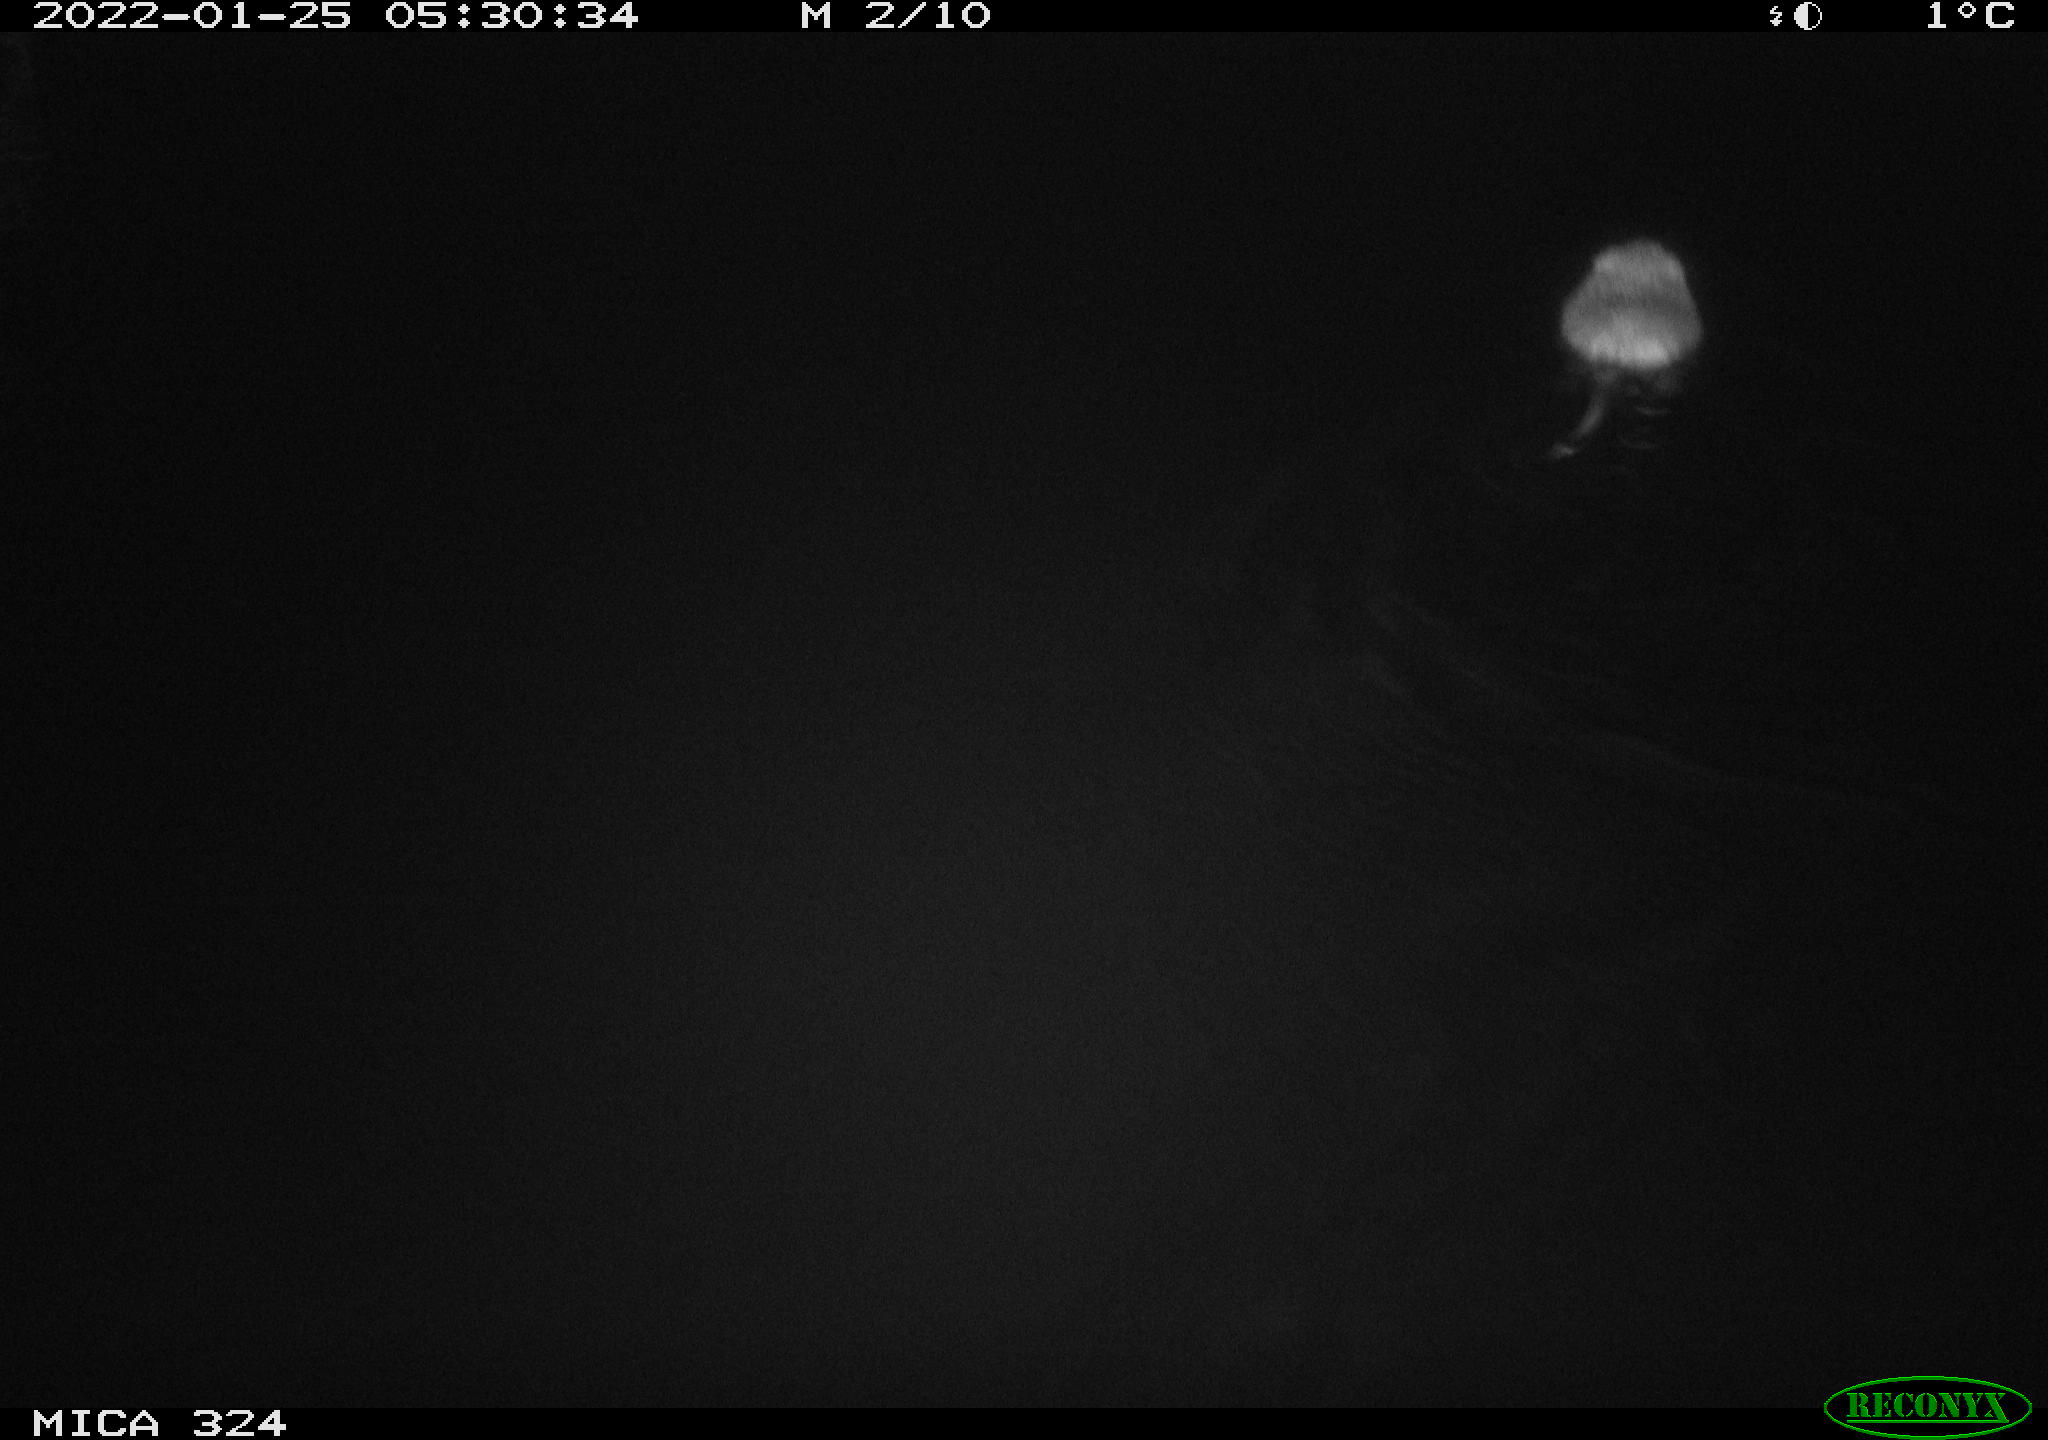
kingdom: Animalia
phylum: Chordata
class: Mammalia
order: Rodentia
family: Cricetidae
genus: Ondatra
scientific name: Ondatra zibethicus
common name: Muskrat
